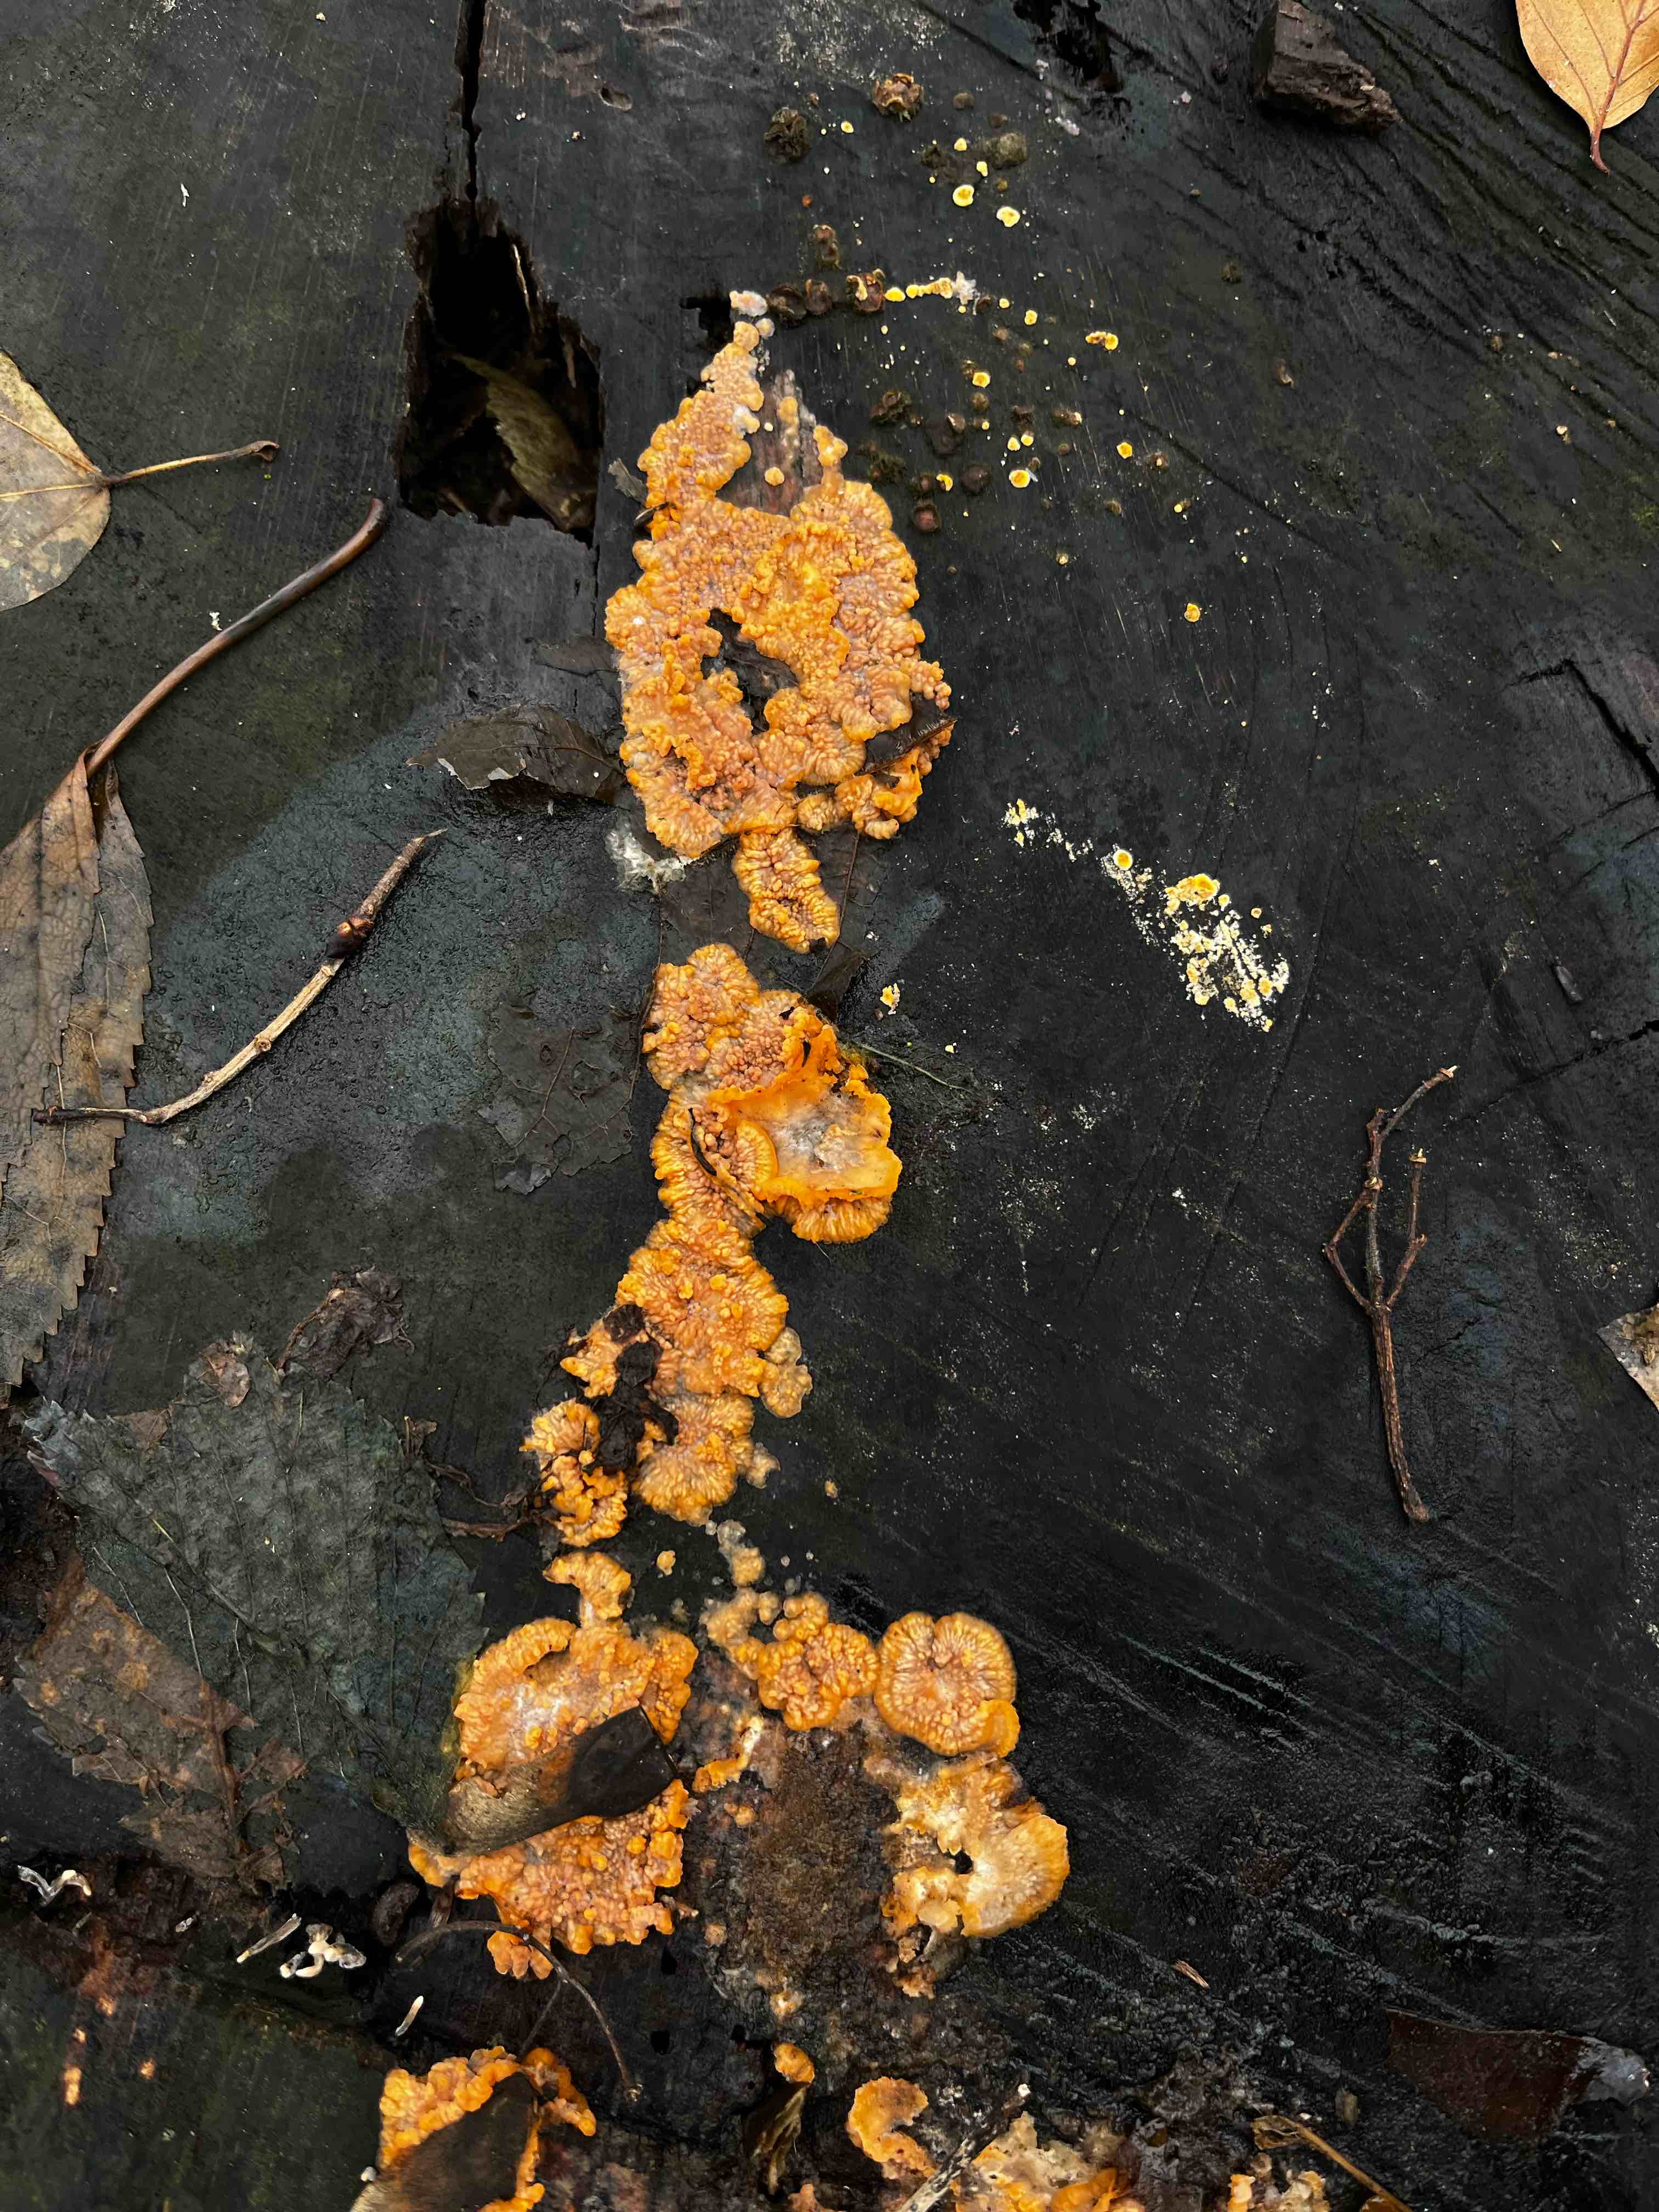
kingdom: Fungi
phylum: Basidiomycota
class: Agaricomycetes
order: Polyporales
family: Meruliaceae
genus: Phlebia
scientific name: Phlebia radiata
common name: stråle-åresvamp
